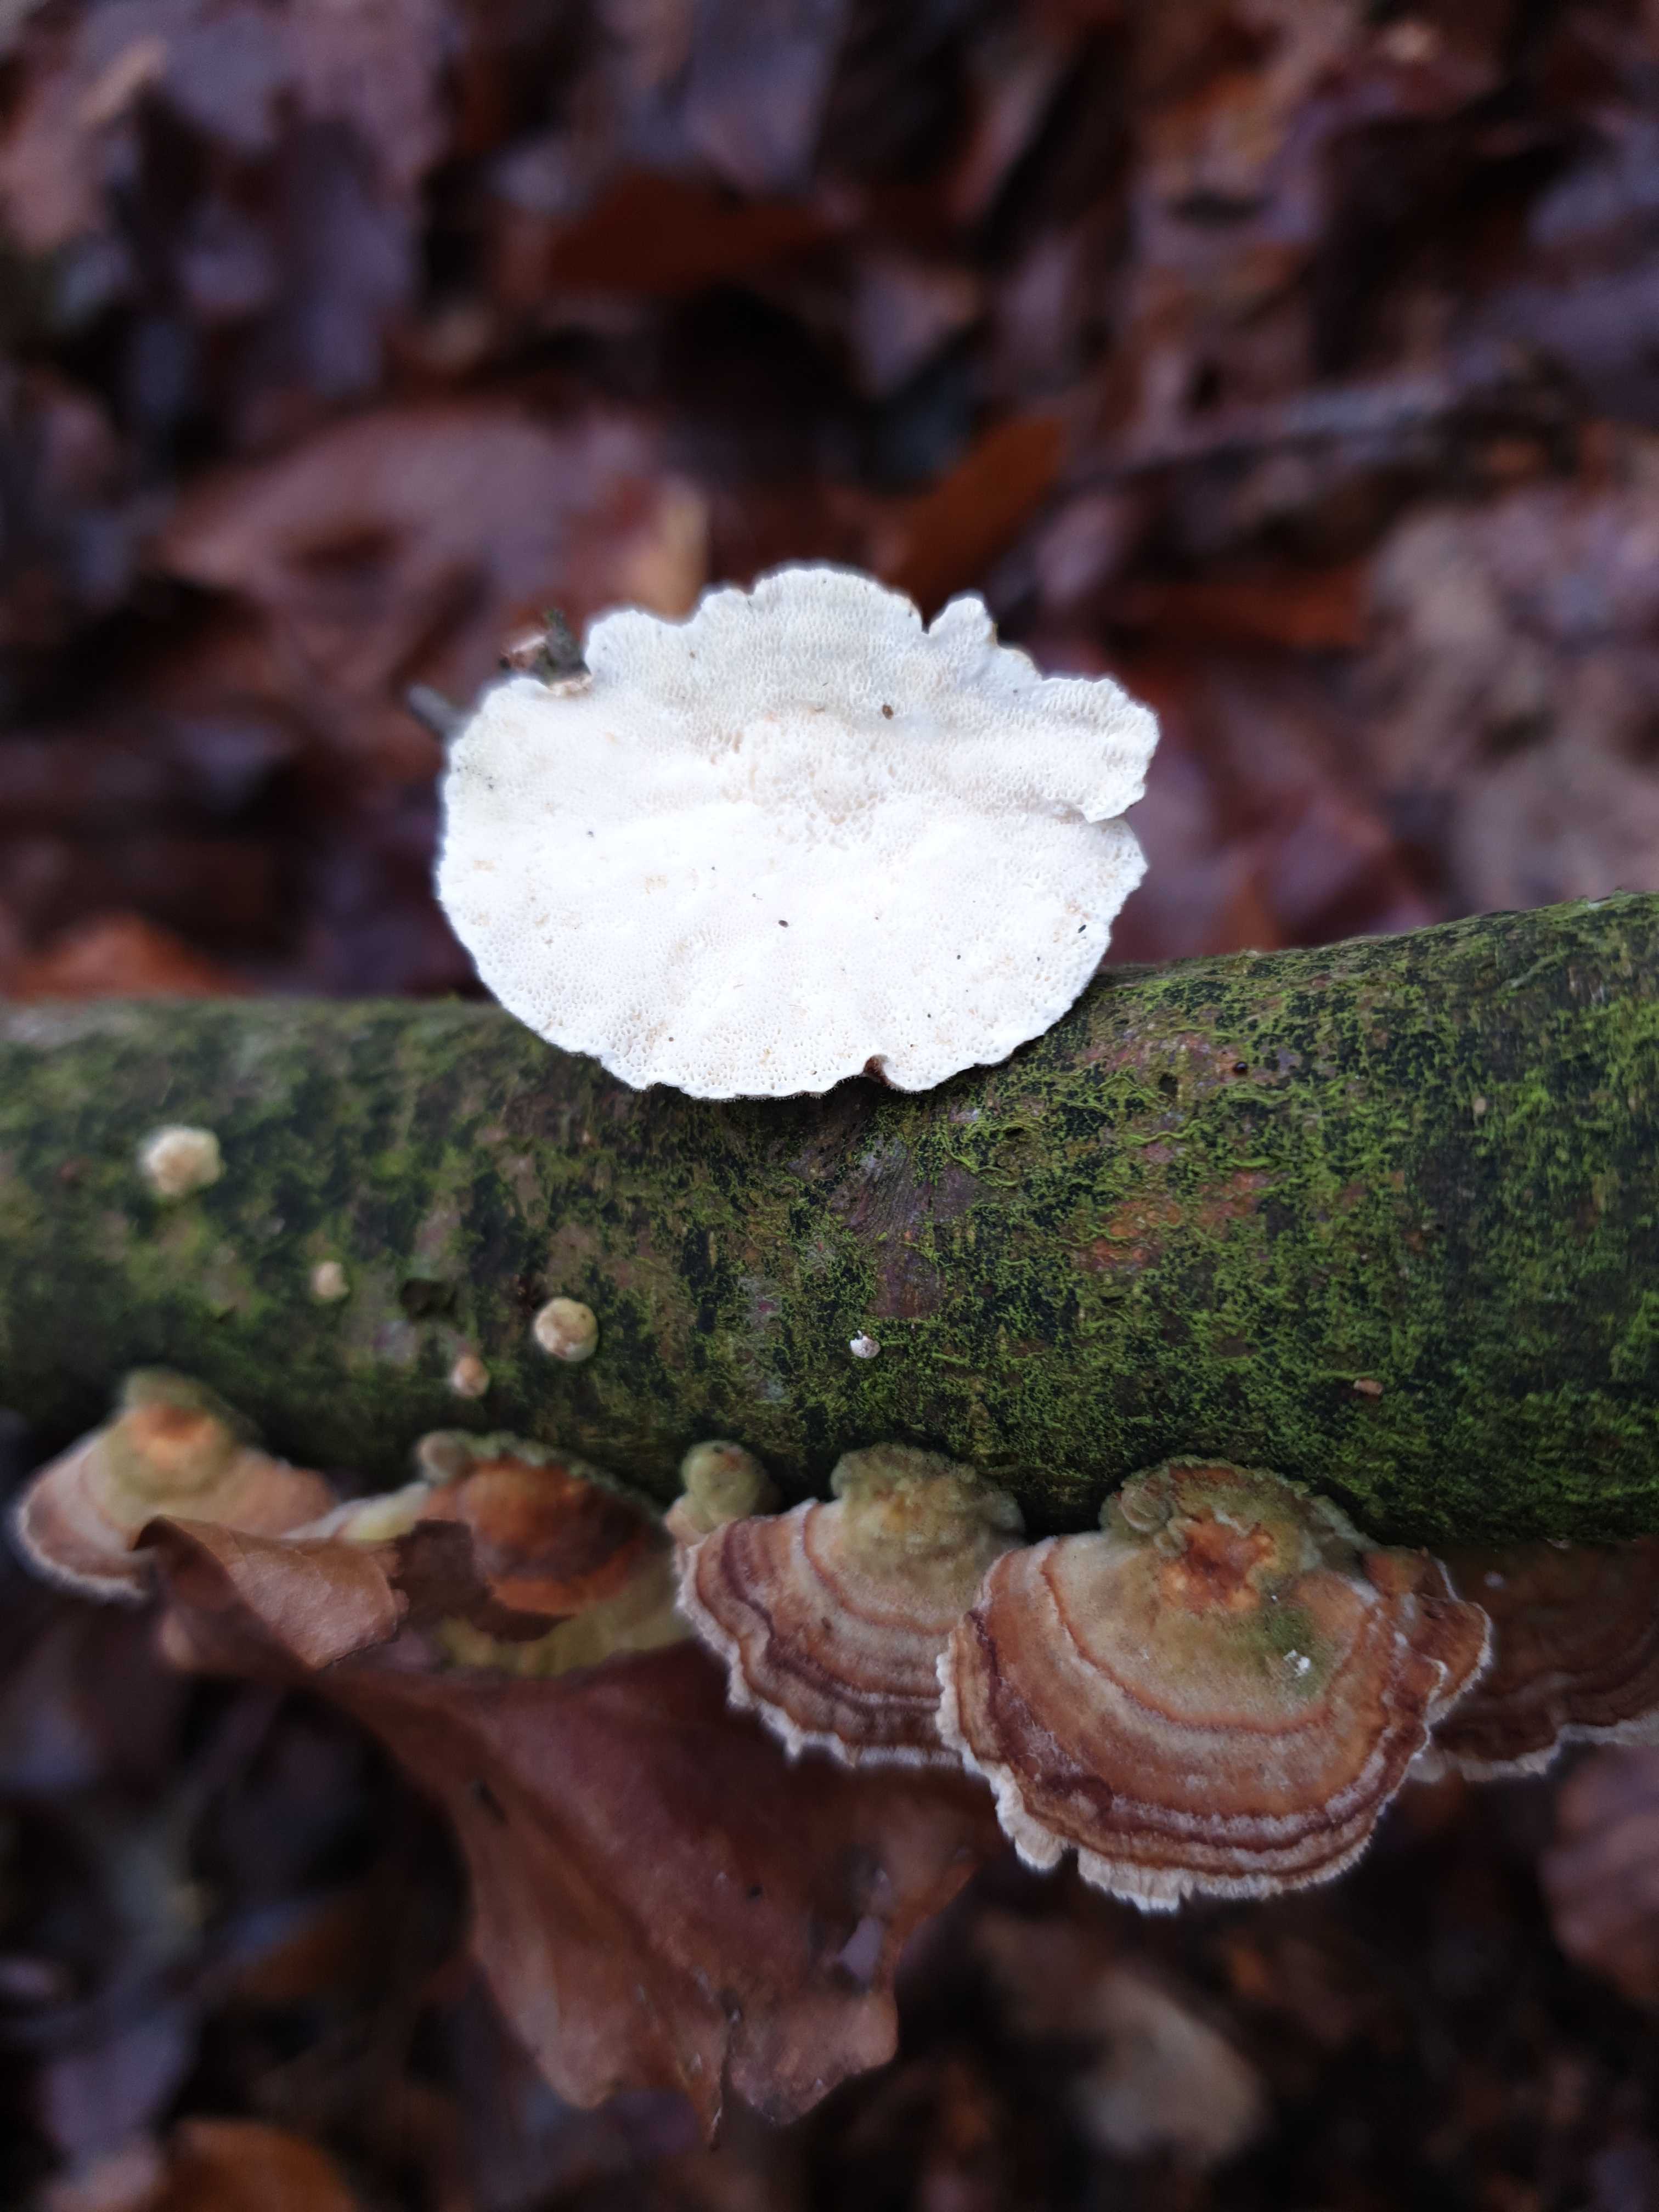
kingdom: Fungi
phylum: Basidiomycota
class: Agaricomycetes
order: Polyporales
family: Polyporaceae
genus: Trametes
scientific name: Trametes
